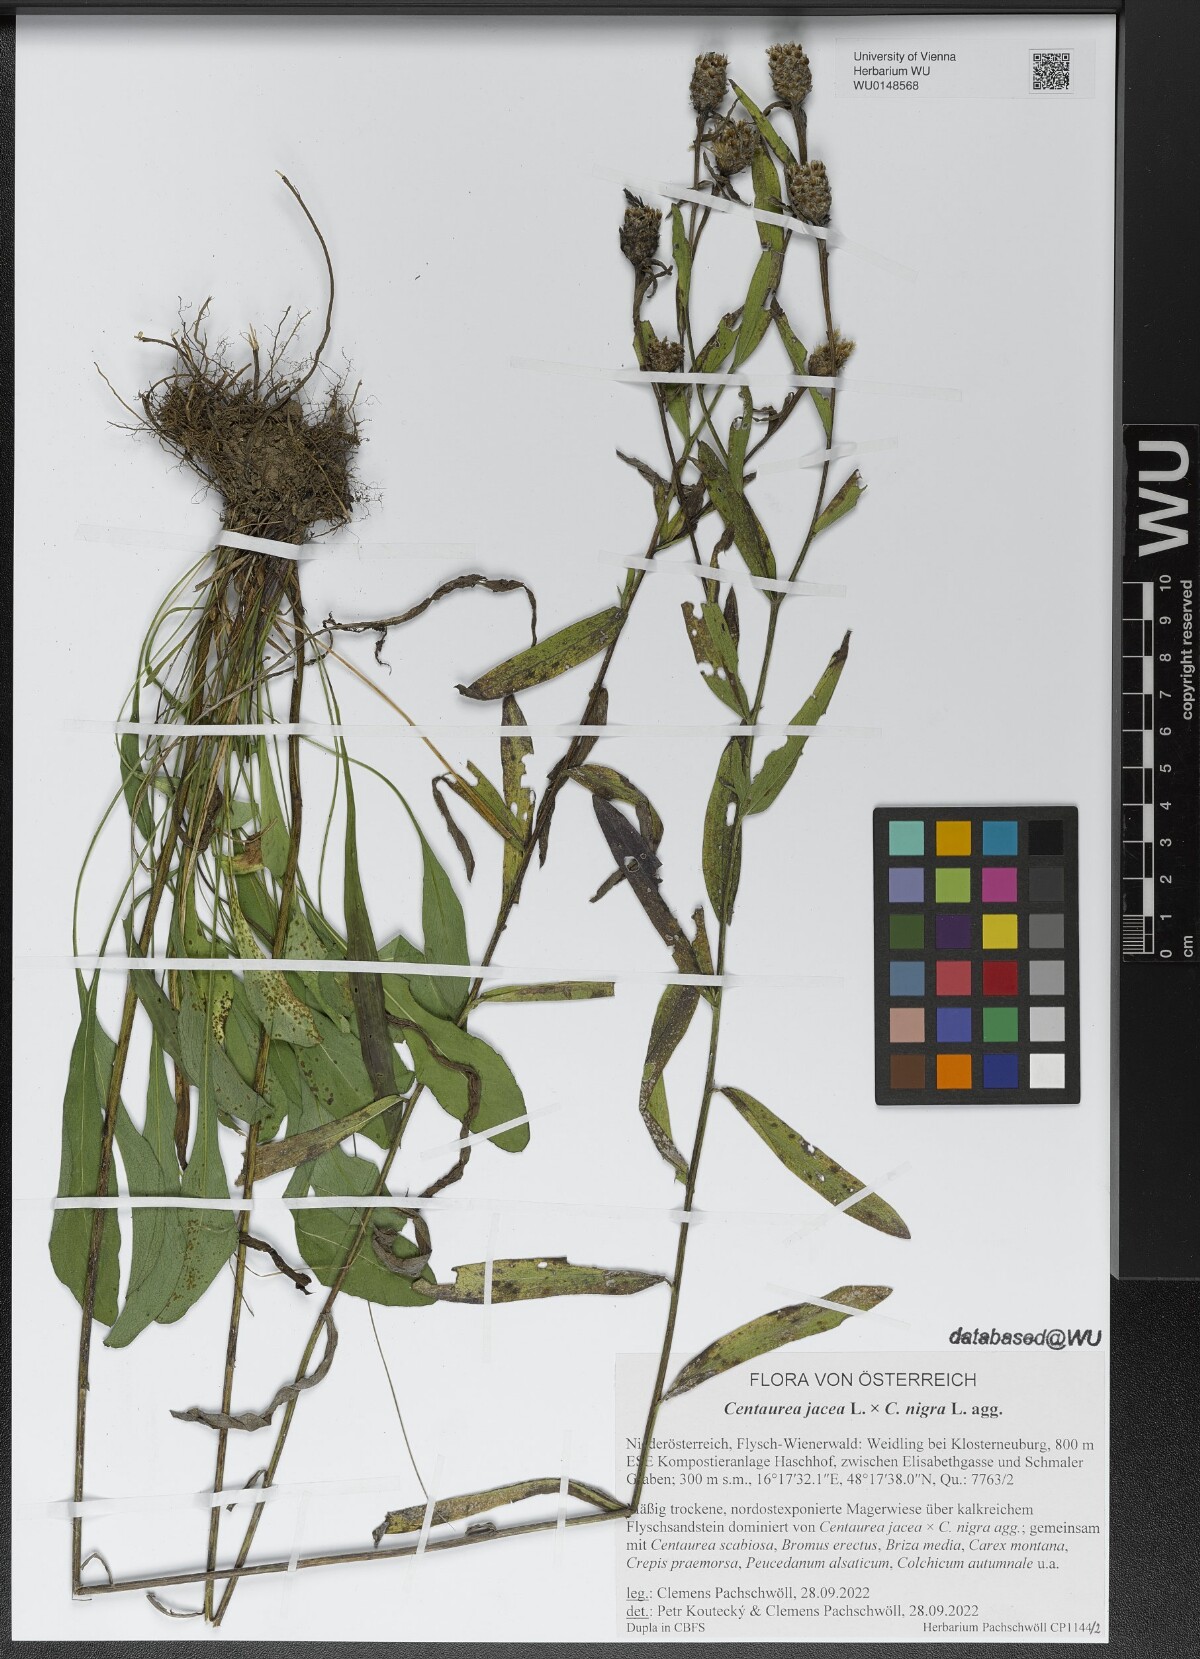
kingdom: Plantae
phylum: Tracheophyta
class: Magnoliopsida
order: Asterales
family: Asteraceae
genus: Centaurea
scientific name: Centaurea
